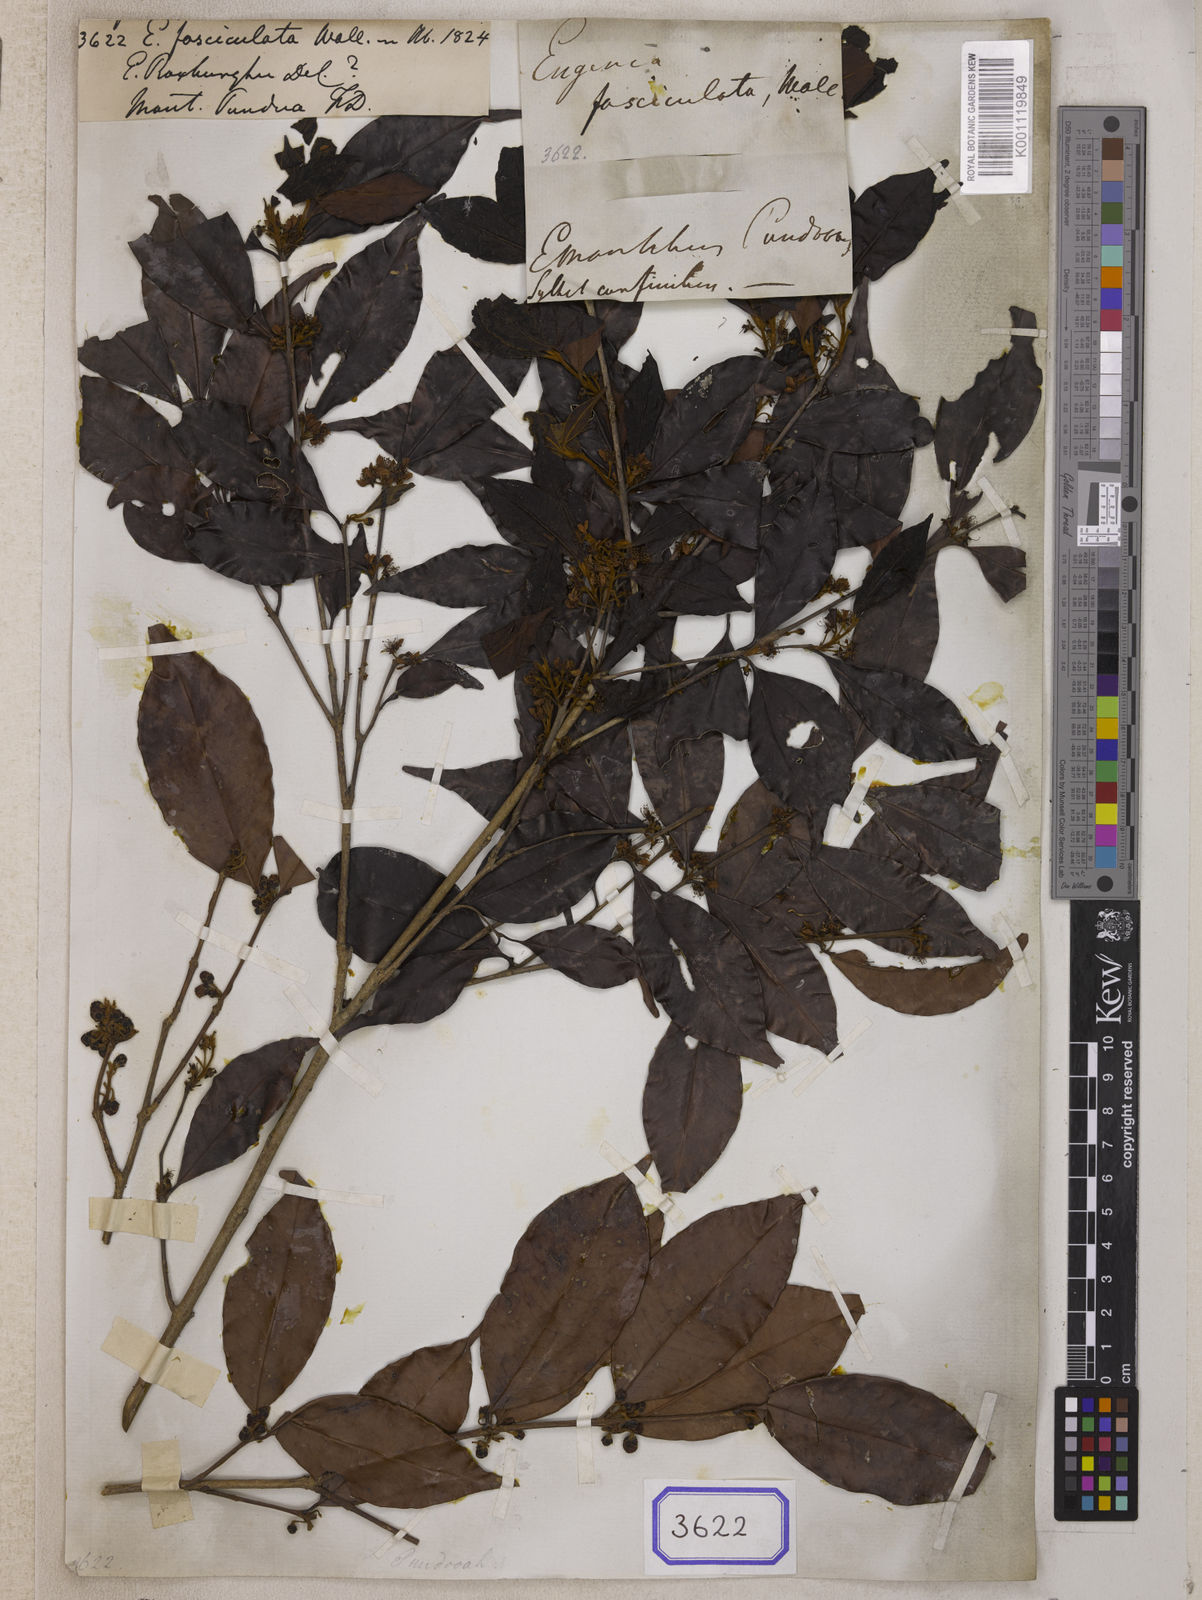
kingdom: Plantae
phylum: Tracheophyta
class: Magnoliopsida
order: Myrtales
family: Myrtaceae
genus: Eugenia
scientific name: Eugenia
